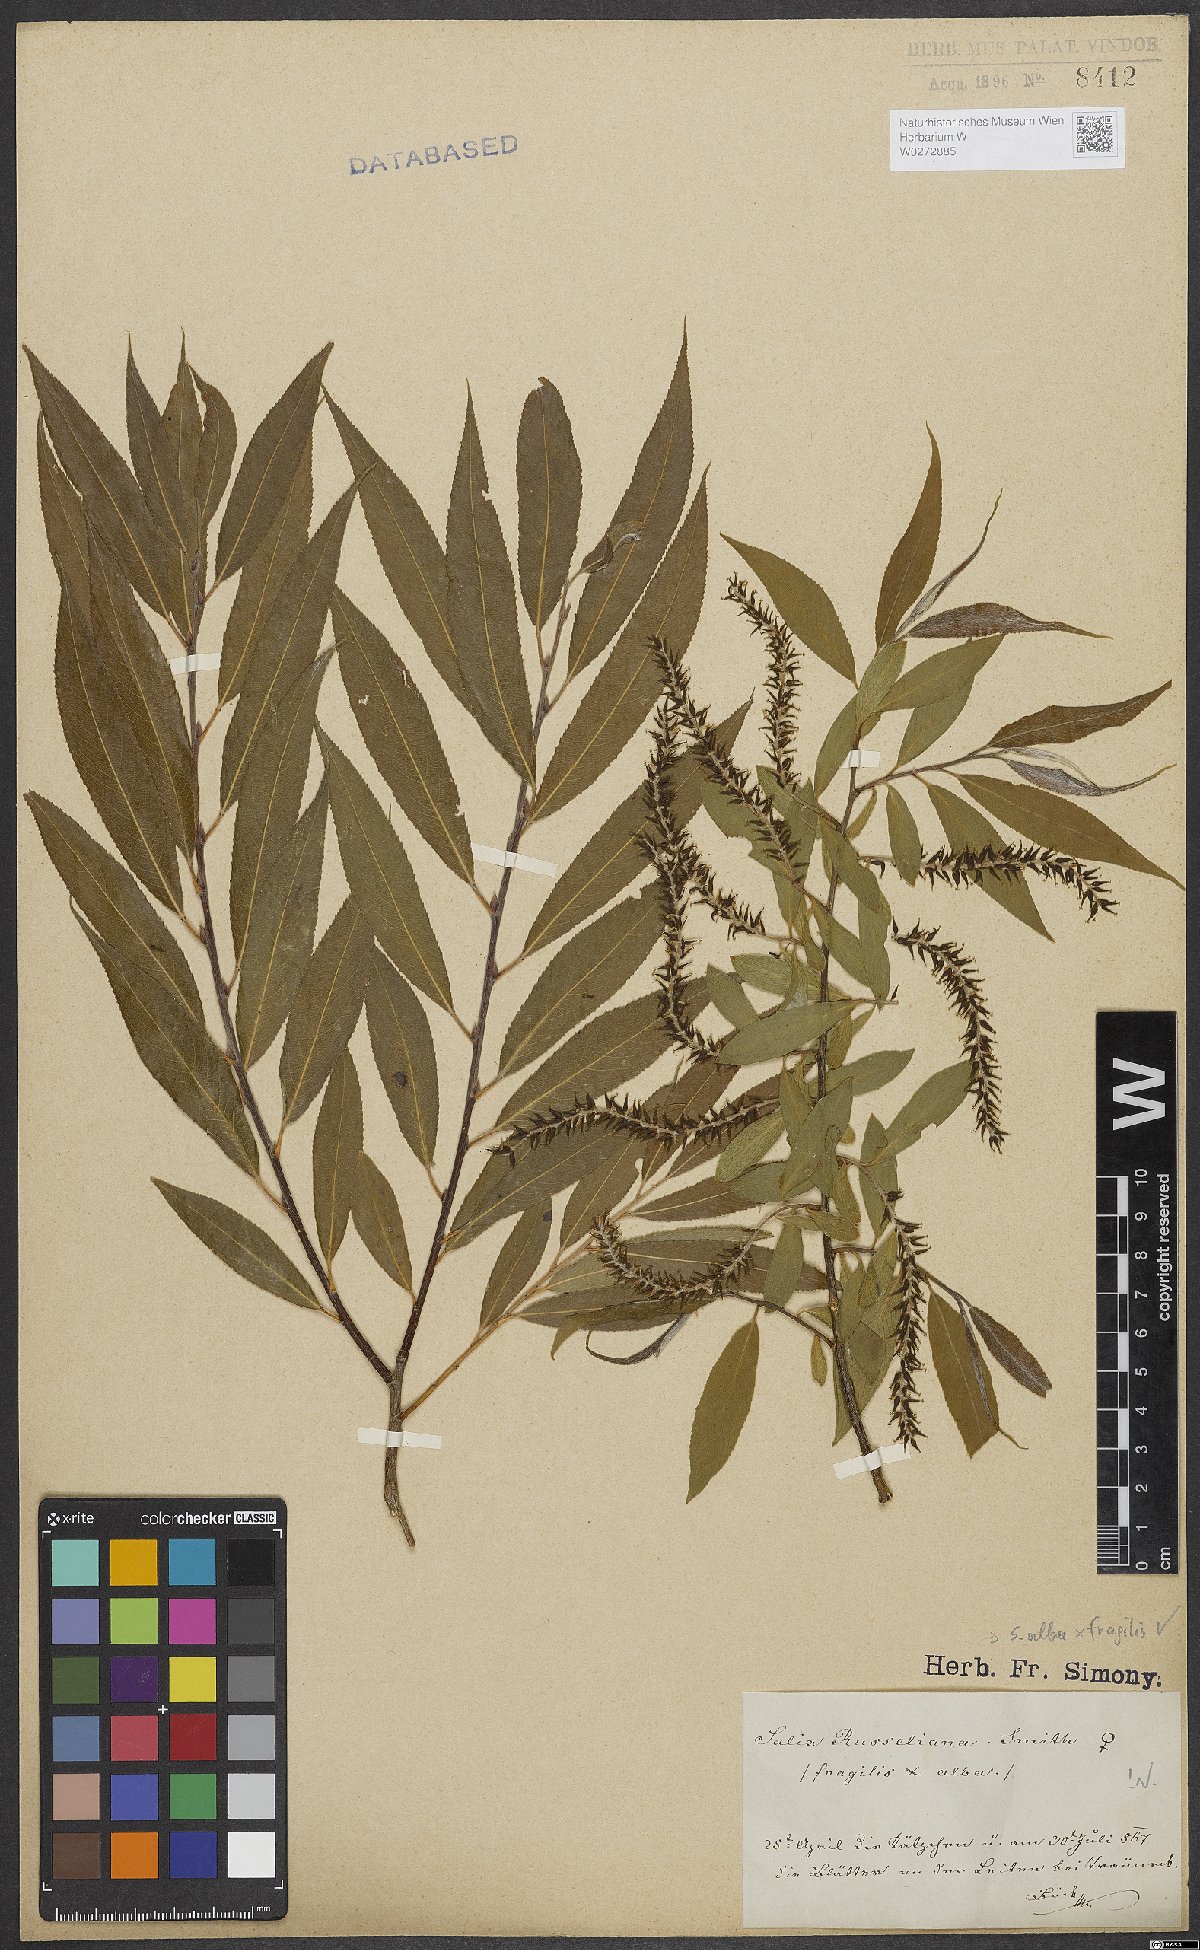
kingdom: Plantae
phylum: Tracheophyta
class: Magnoliopsida
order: Malpighiales
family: Salicaceae
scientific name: Salicaceae
